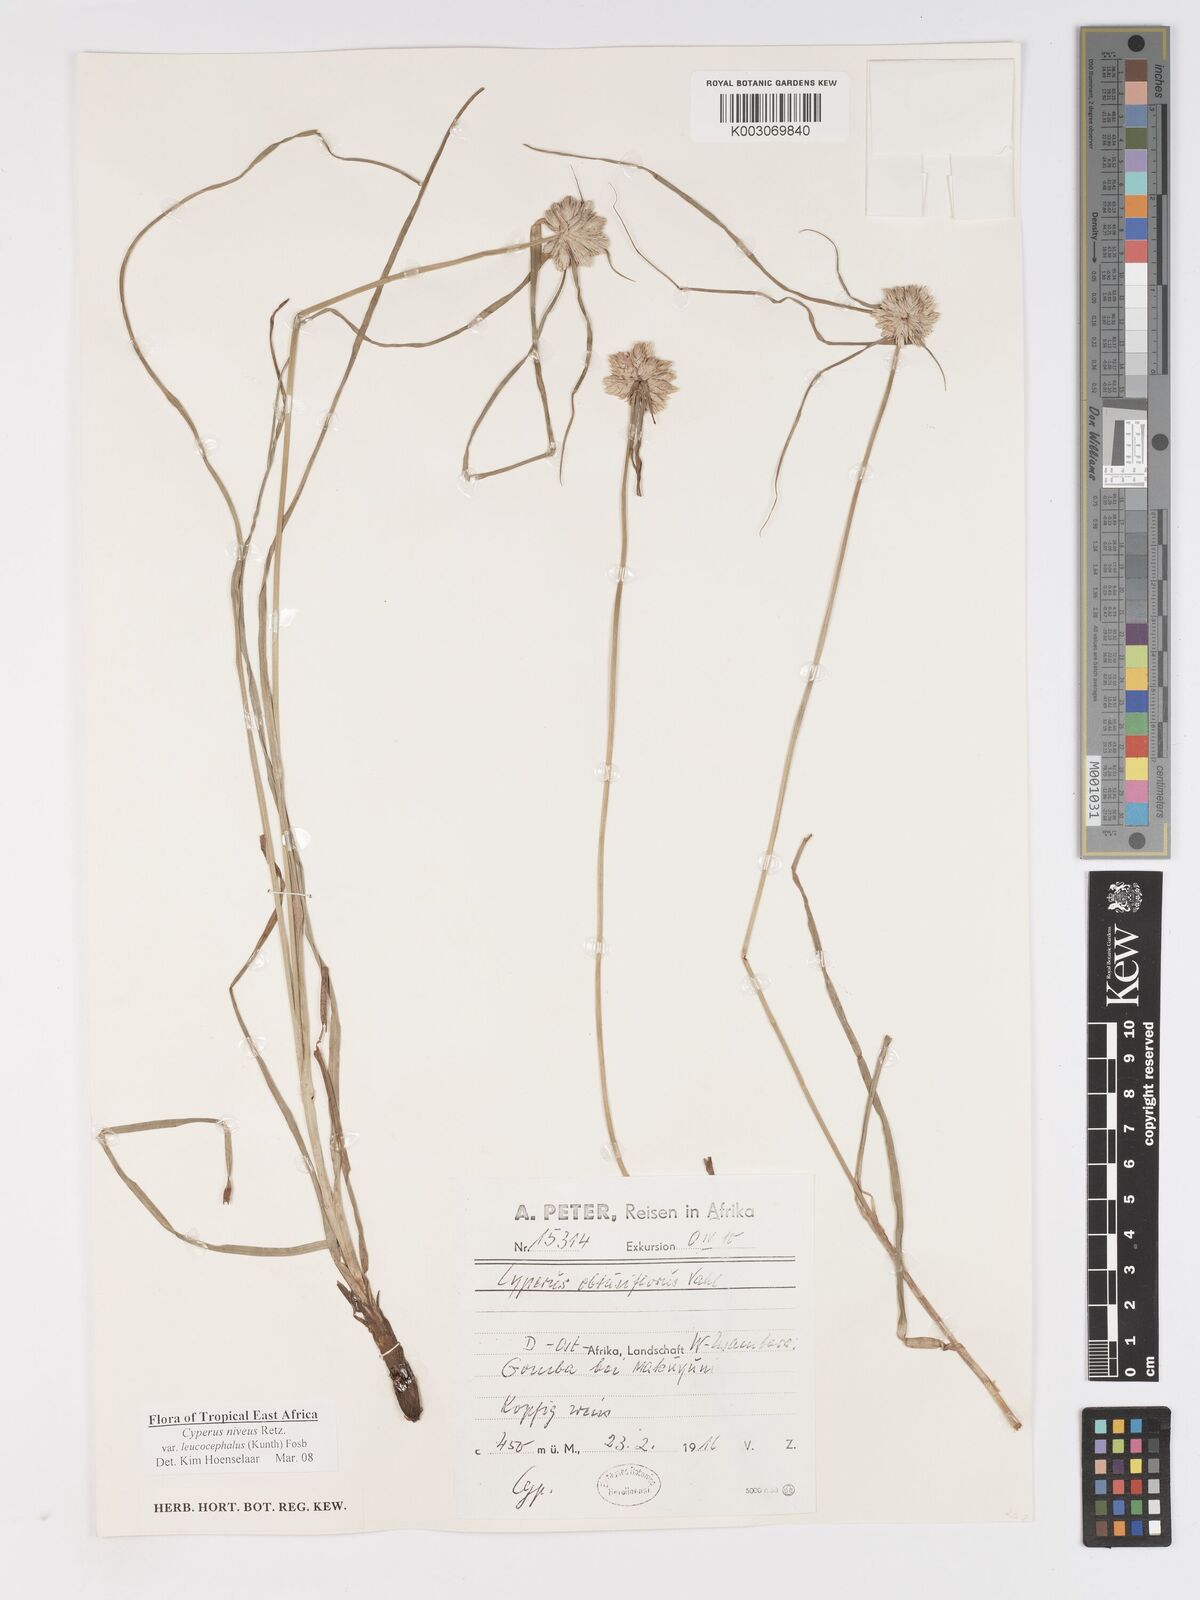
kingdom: Plantae
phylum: Tracheophyta
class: Liliopsida
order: Poales
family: Cyperaceae
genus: Cyperus
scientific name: Cyperus niveus
